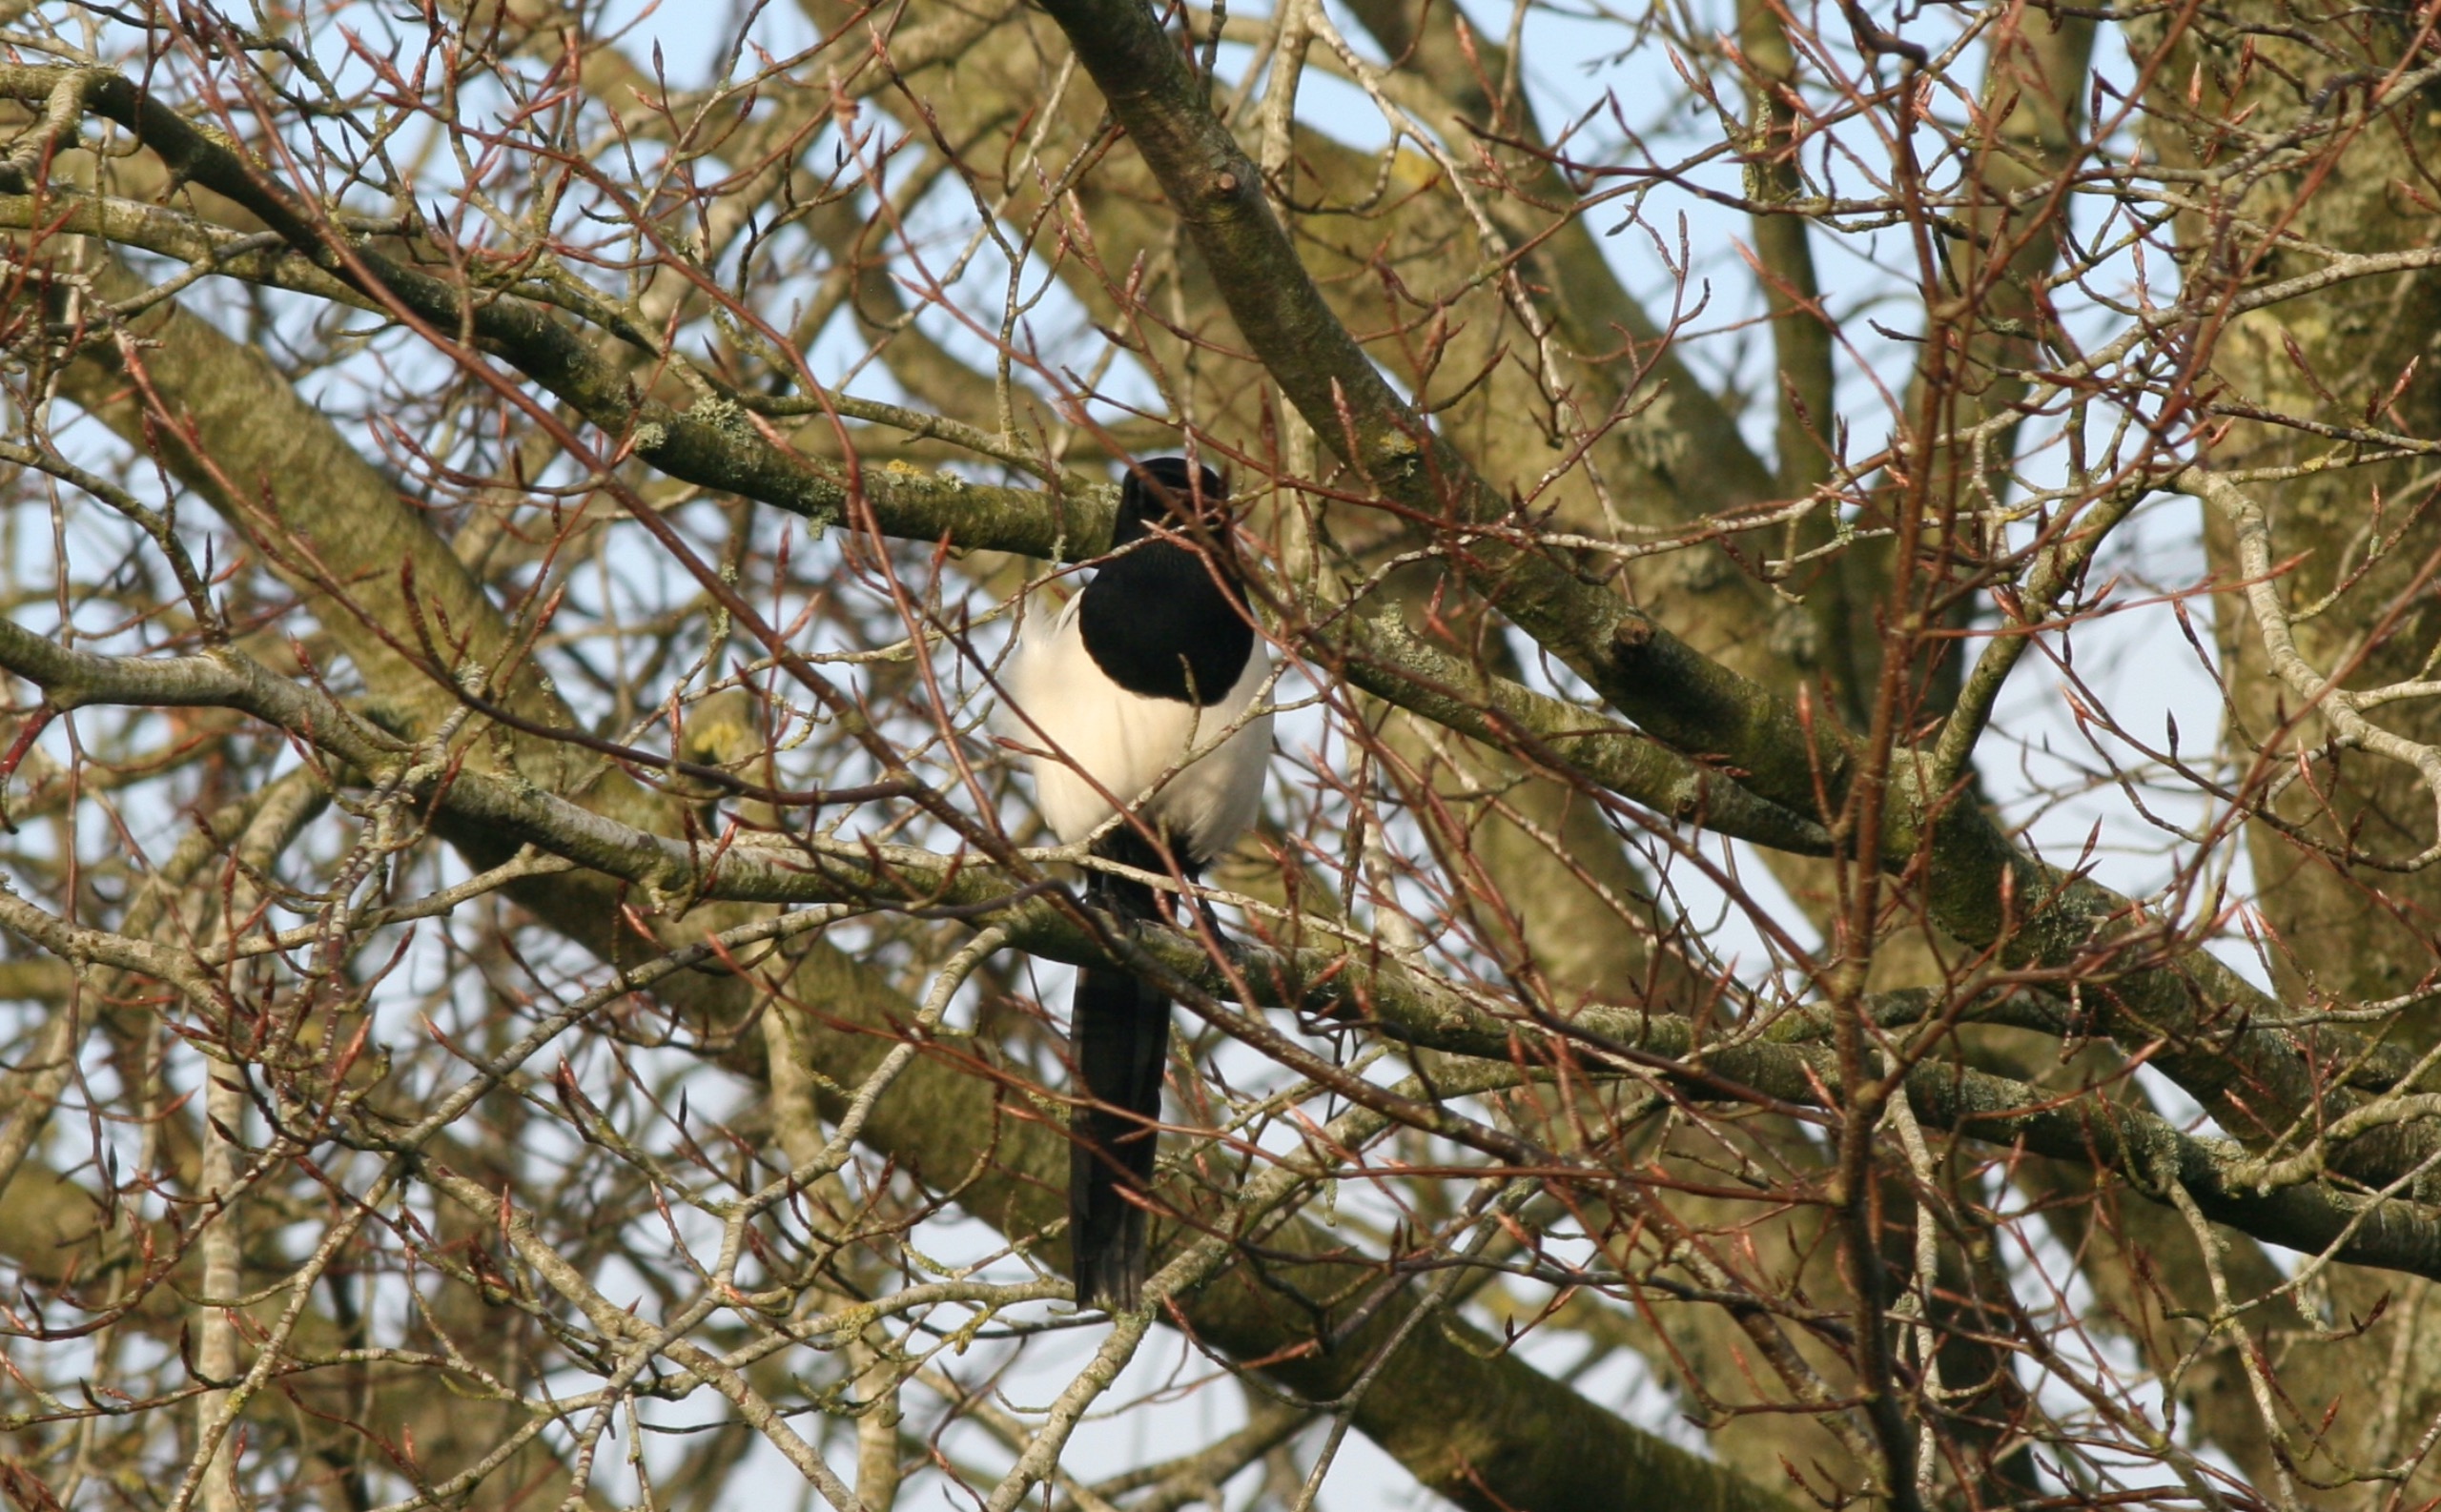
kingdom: Animalia
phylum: Chordata
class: Aves
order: Passeriformes
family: Corvidae
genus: Pica
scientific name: Pica pica
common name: Husskade
